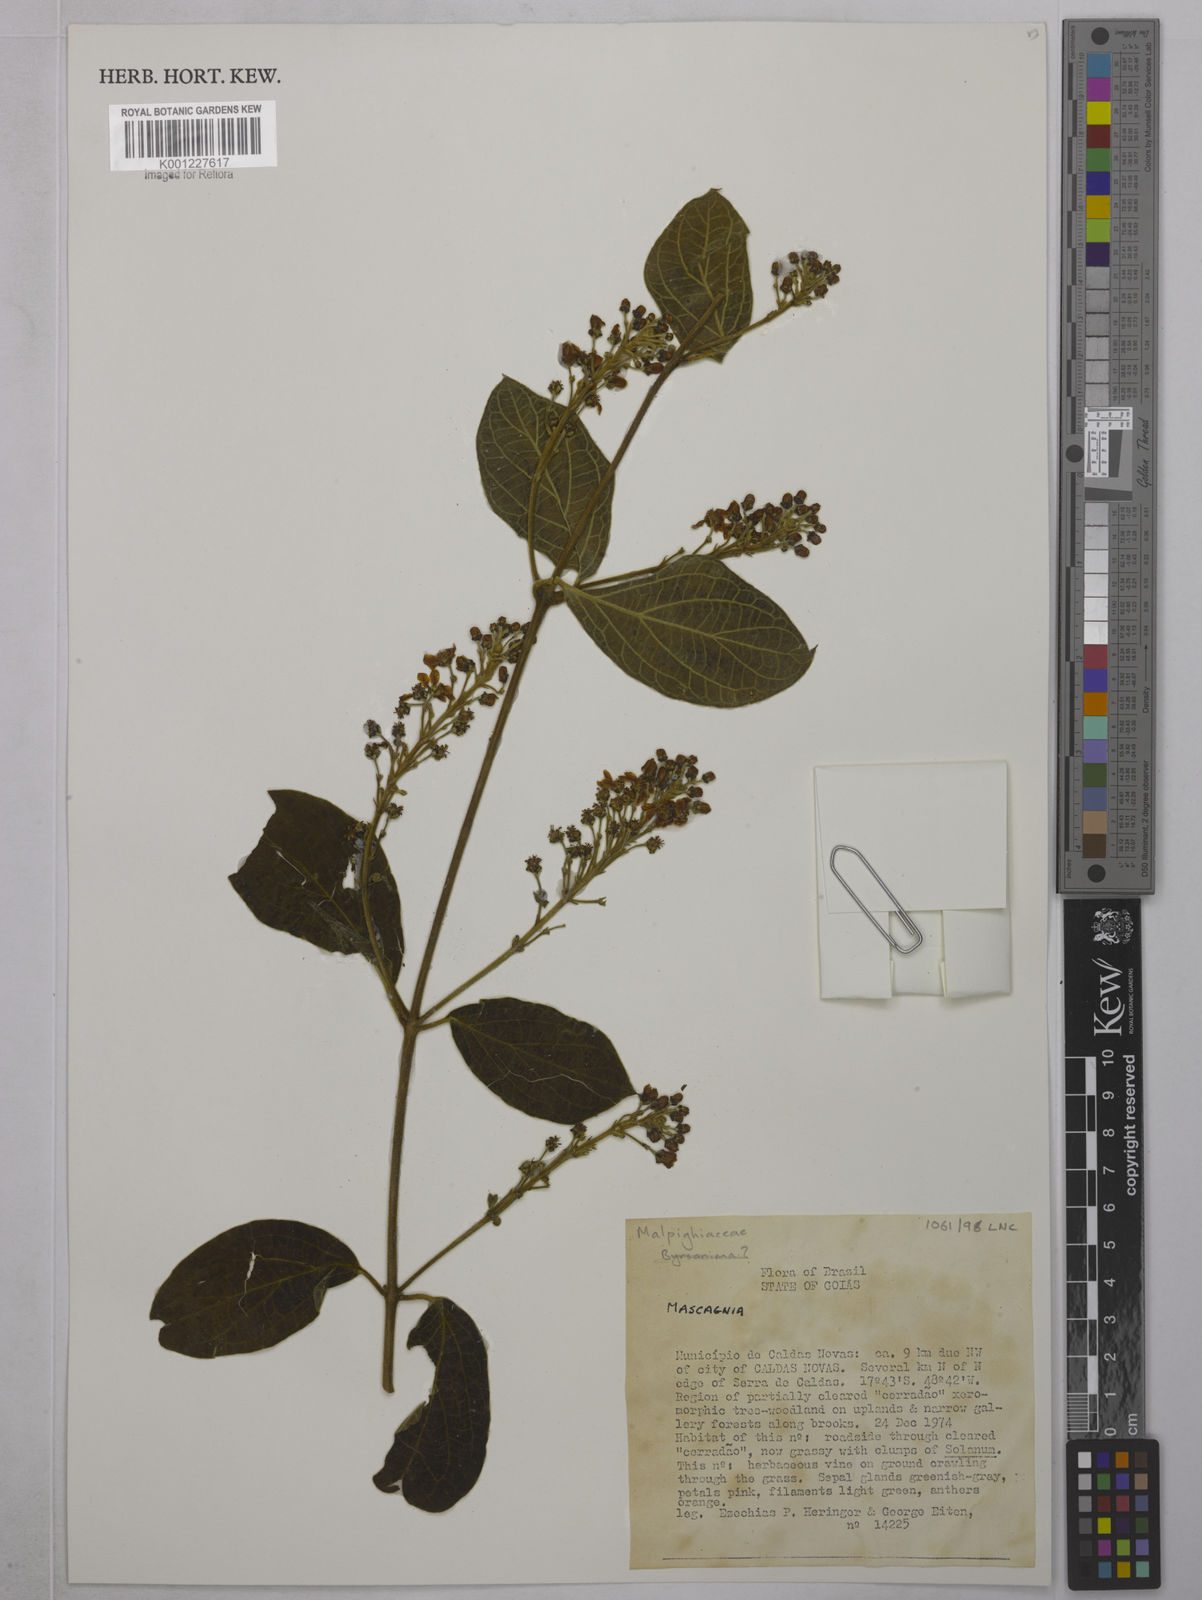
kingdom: Plantae
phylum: Tracheophyta
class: Magnoliopsida
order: Malpighiales
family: Malpighiaceae
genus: Mascagnia
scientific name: Mascagnia
